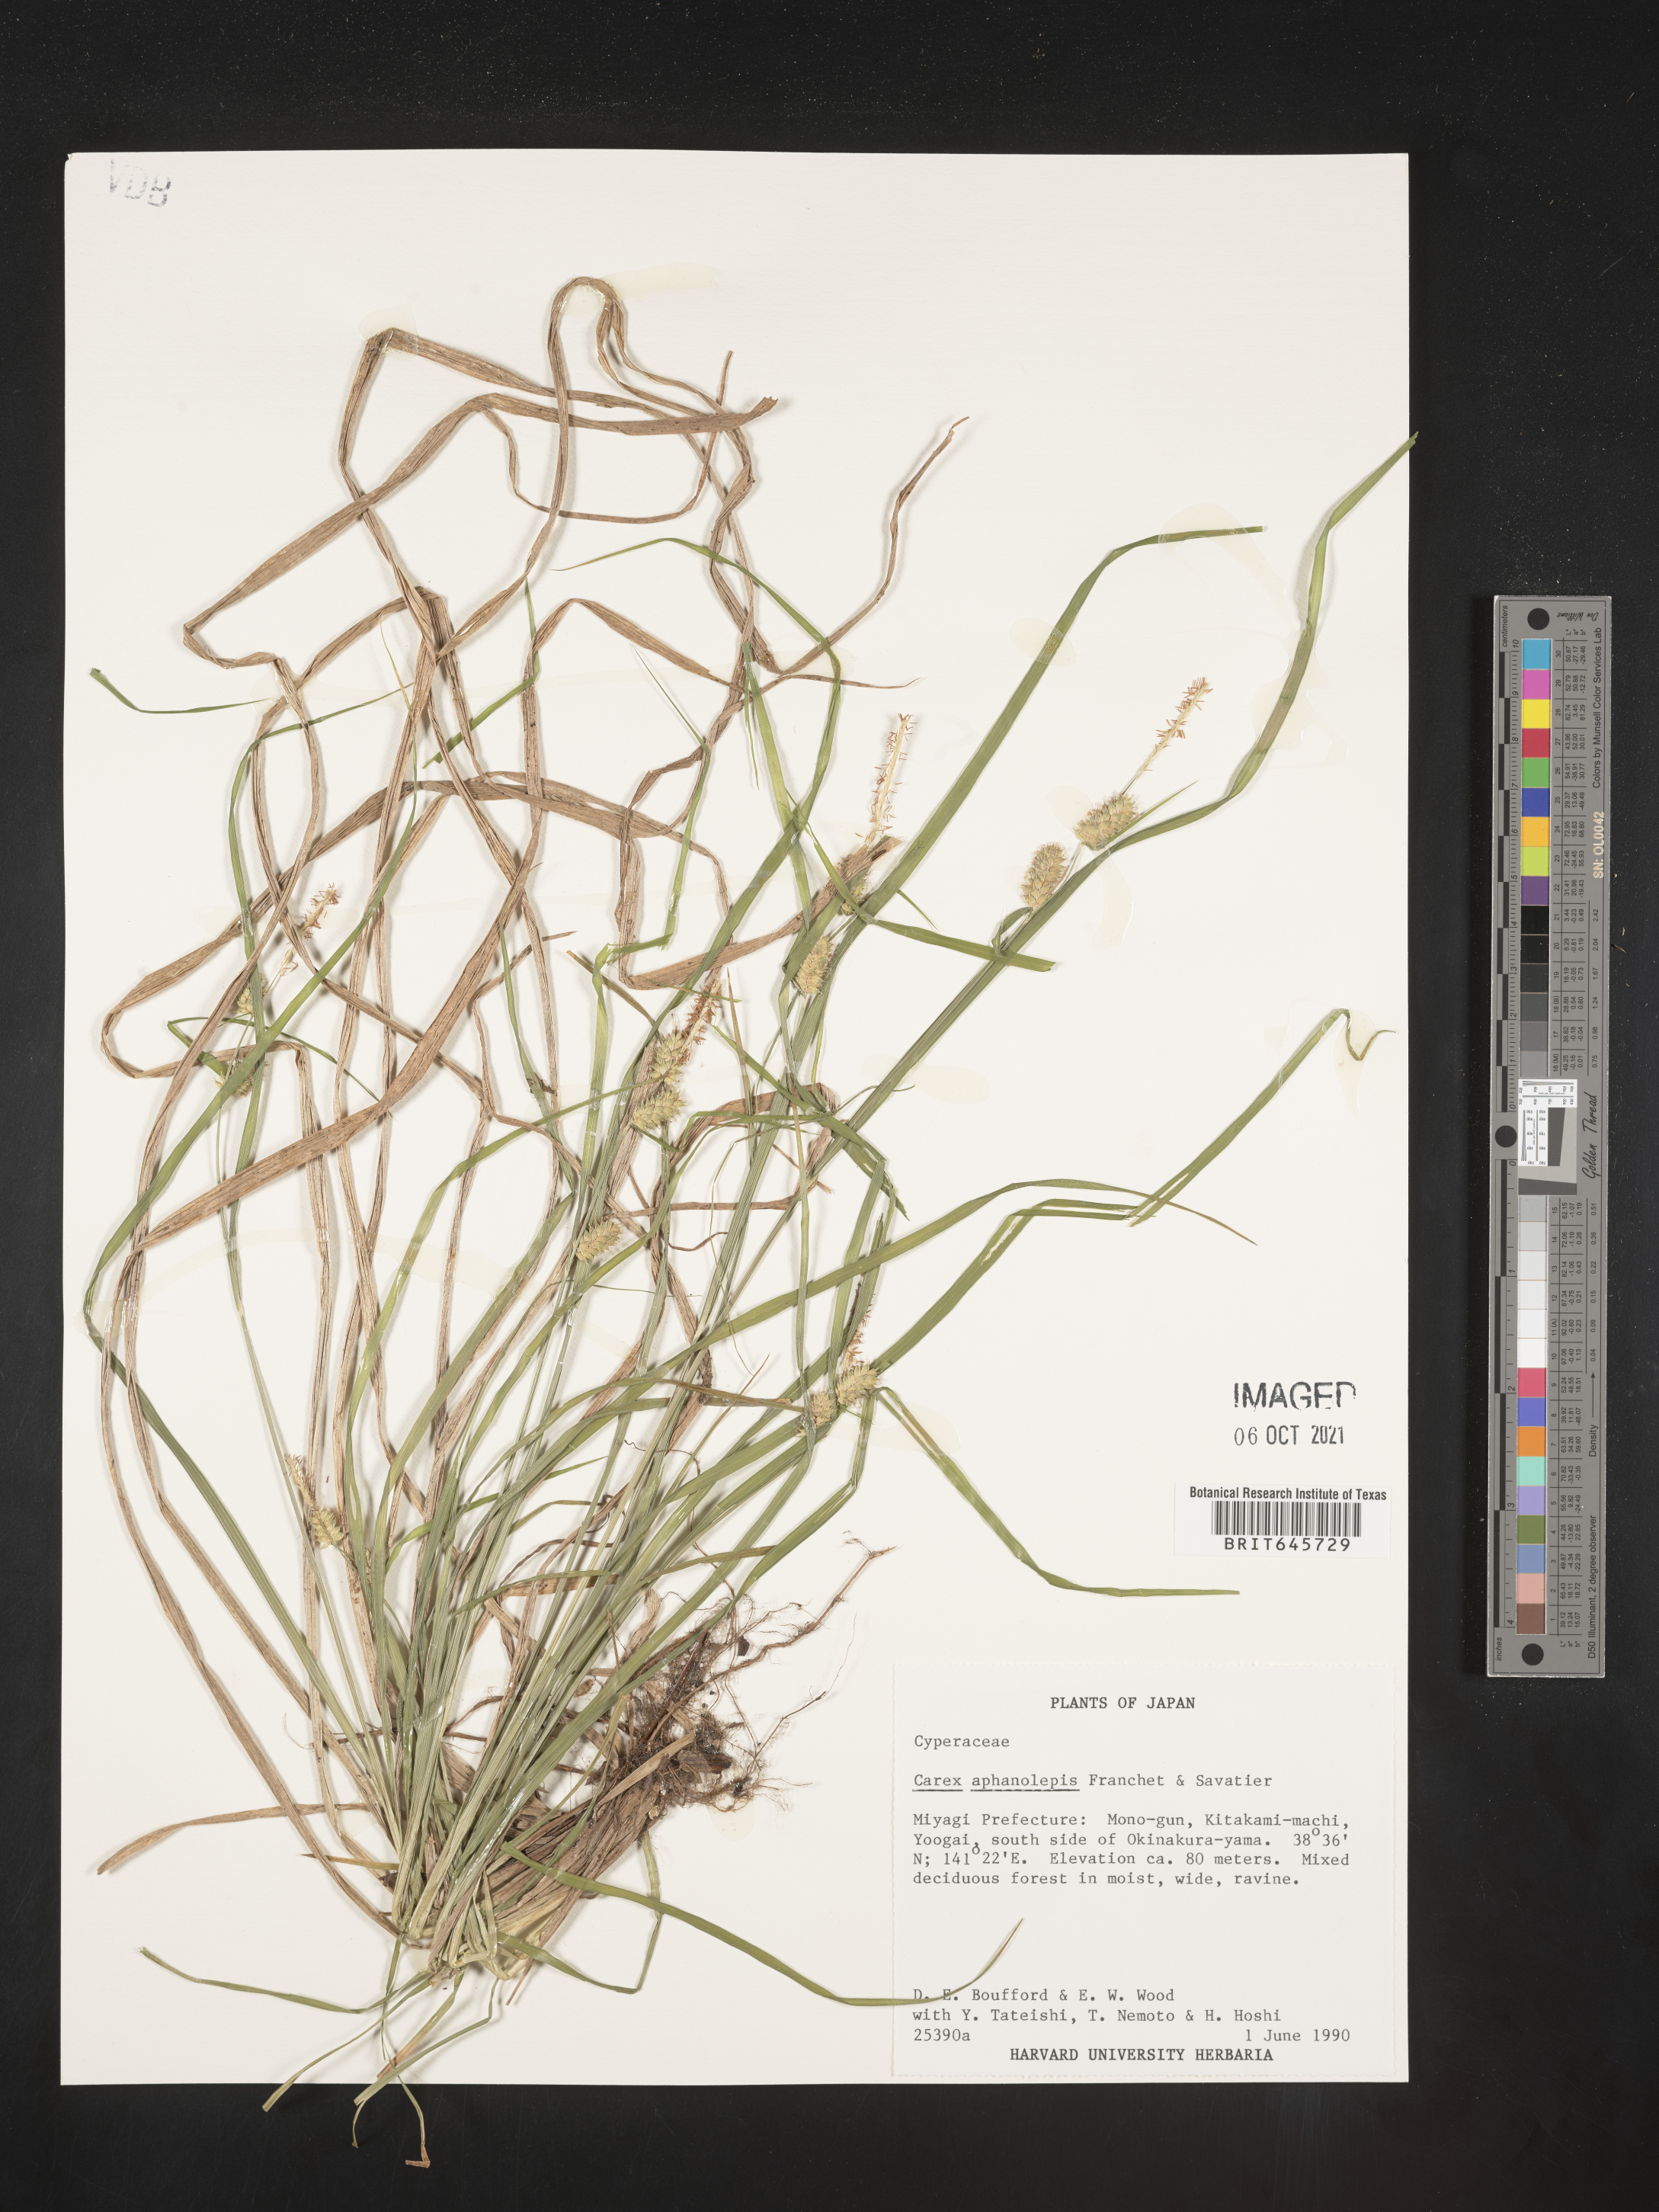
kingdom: Plantae
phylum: Tracheophyta
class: Liliopsida
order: Poales
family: Cyperaceae
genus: Carex
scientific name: Carex aphanolepis
